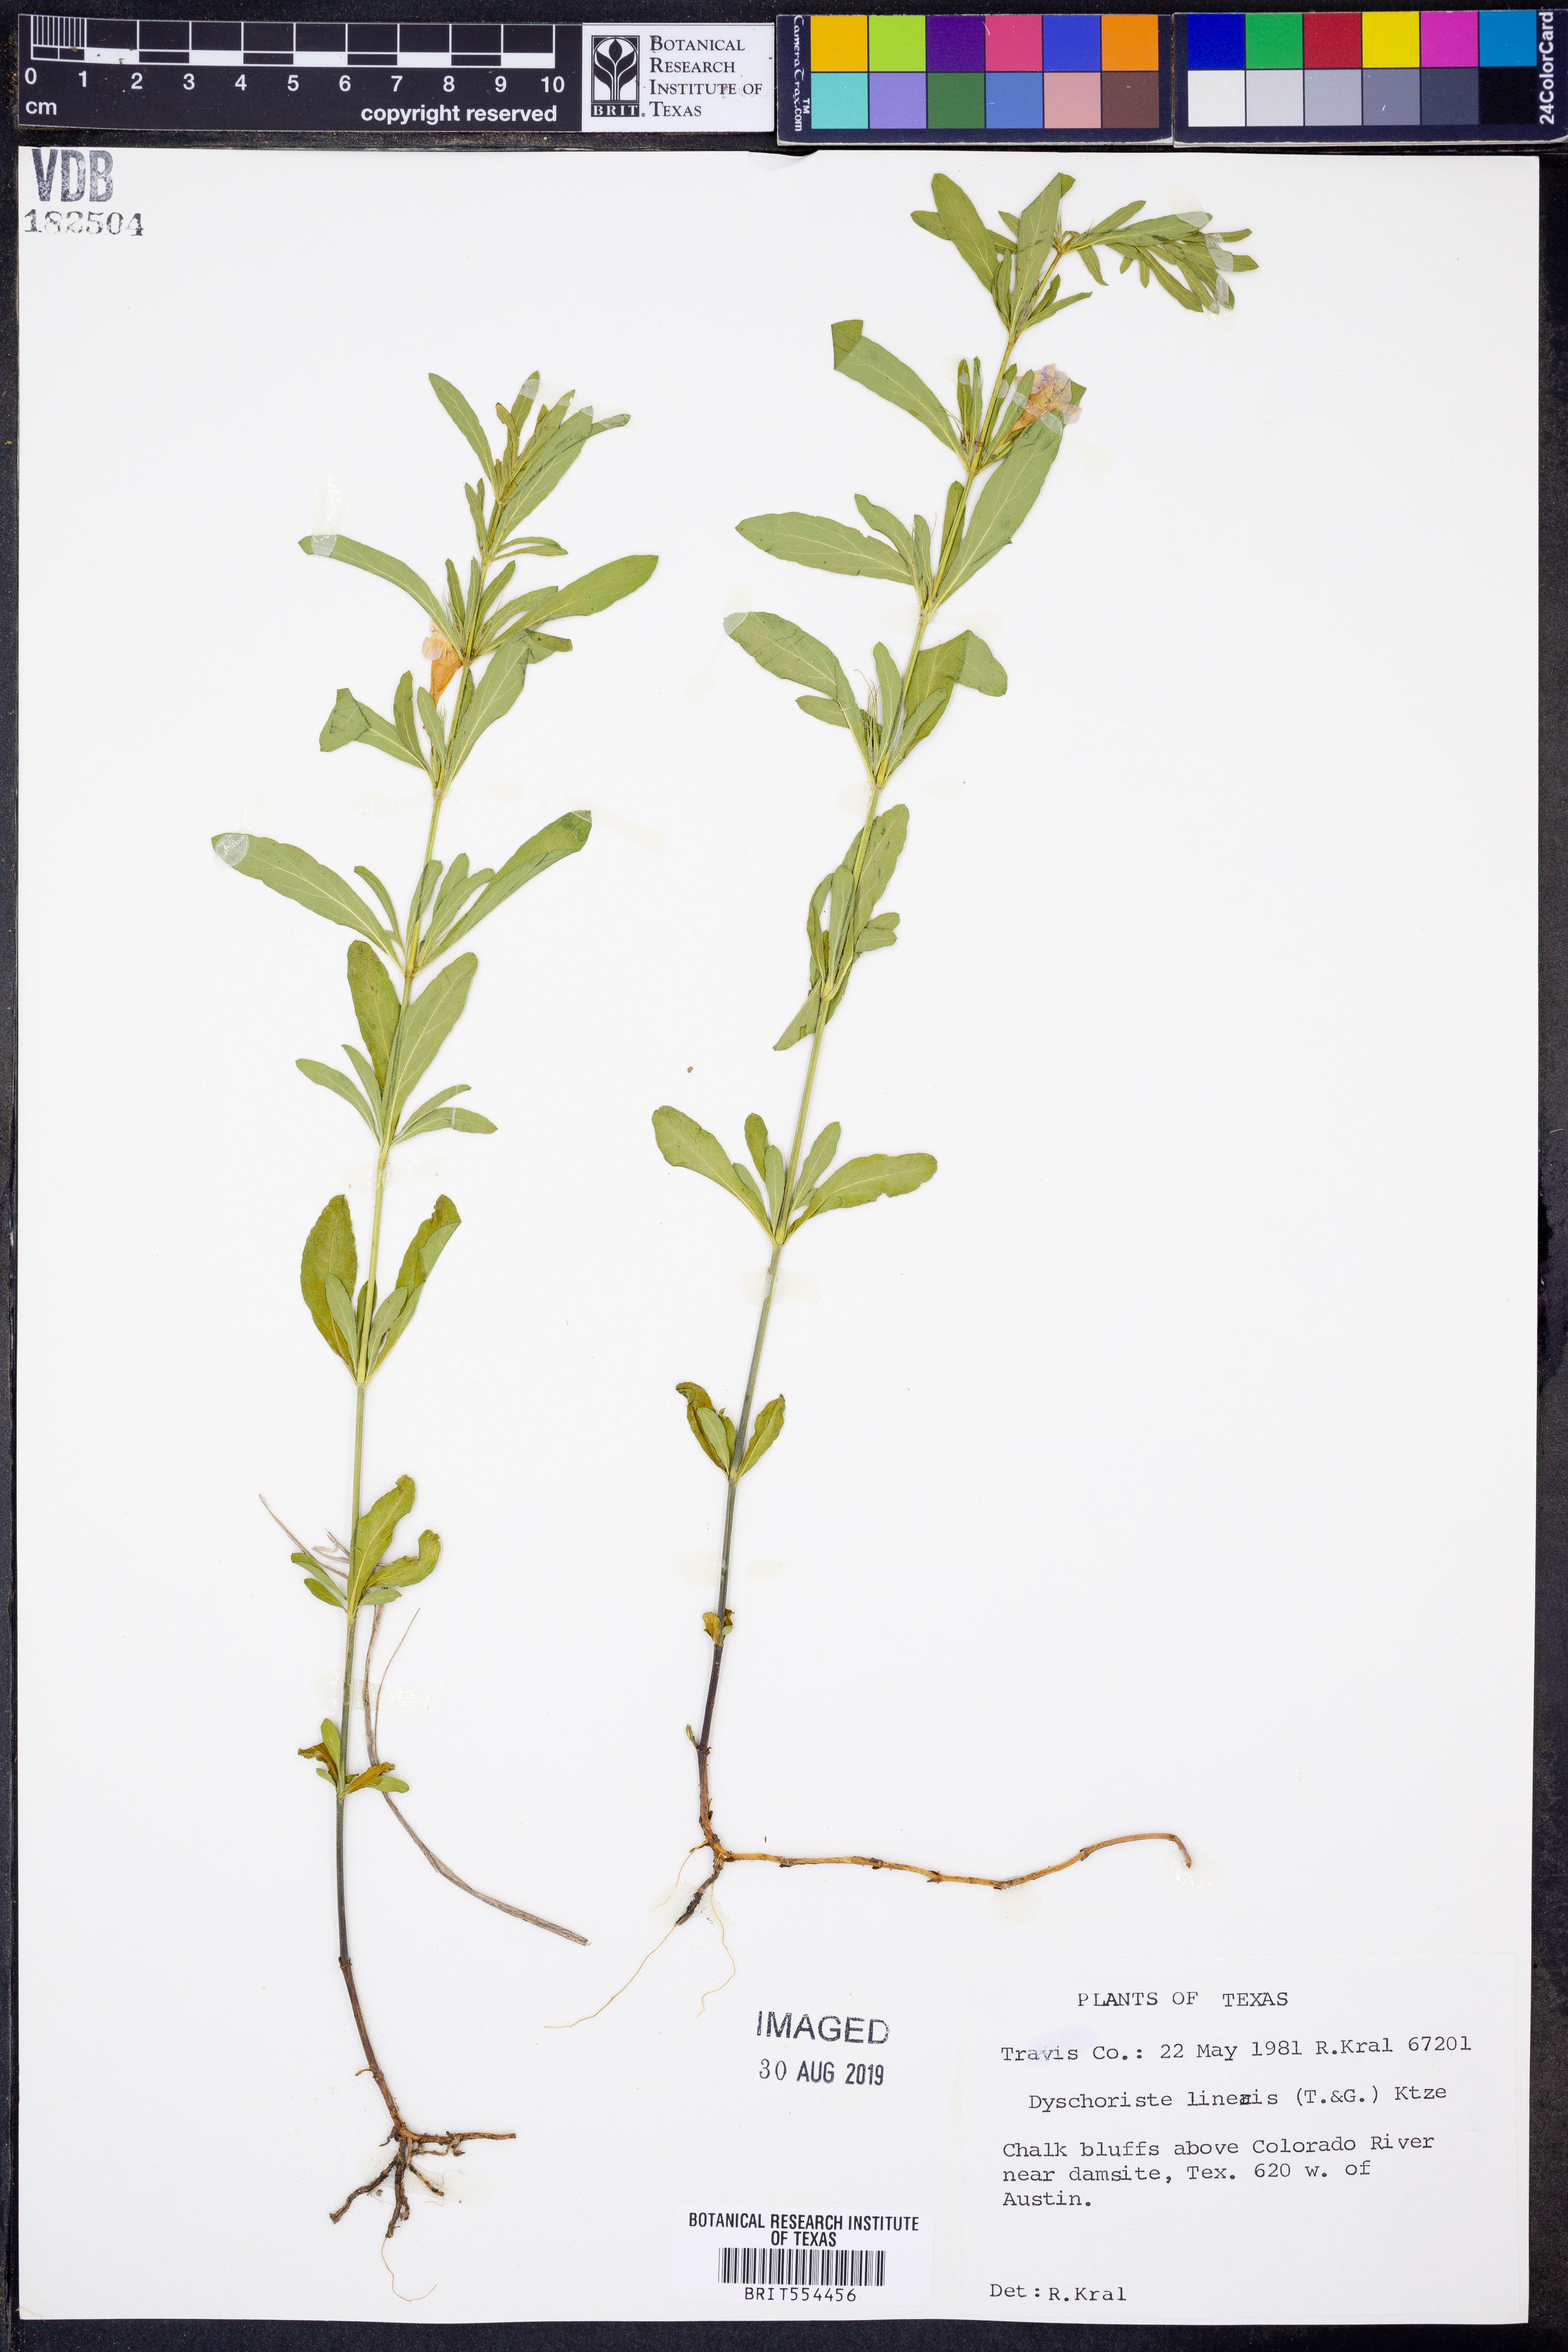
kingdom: Plantae
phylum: Tracheophyta
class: Magnoliopsida
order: Lamiales
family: Acanthaceae
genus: Dyschoriste
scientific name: Dyschoriste linearis
